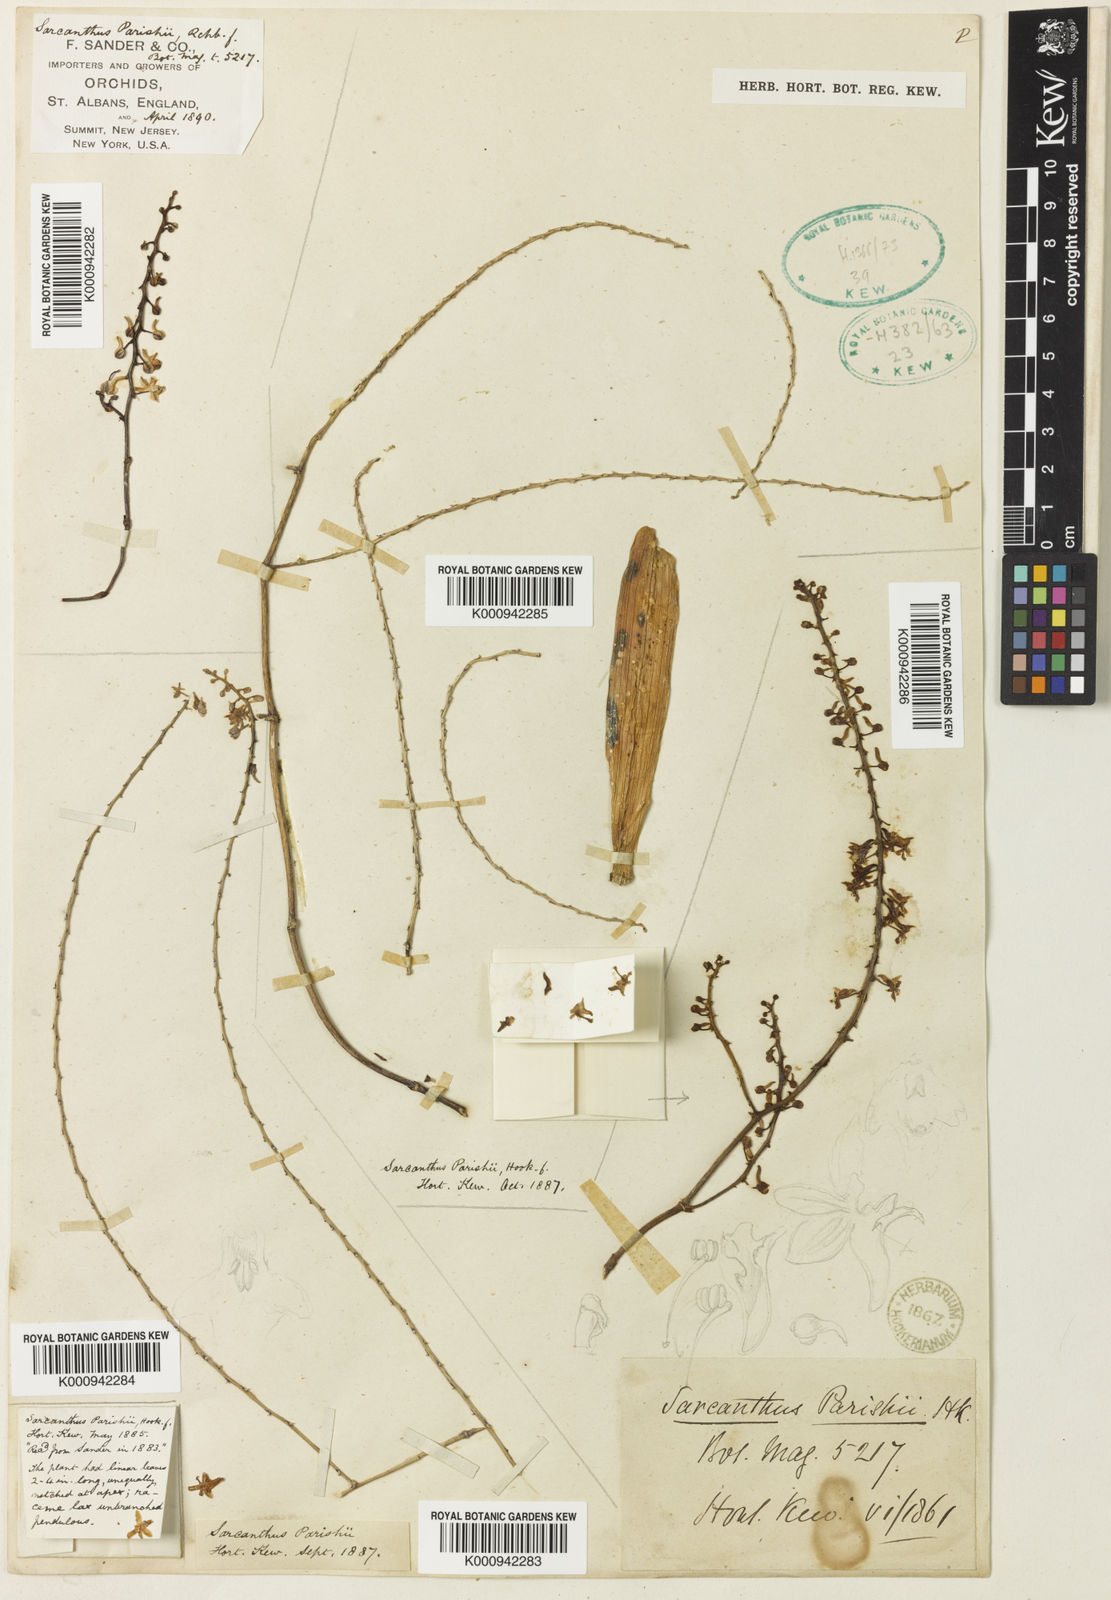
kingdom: Plantae
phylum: Tracheophyta
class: Liliopsida
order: Asparagales
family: Orchidaceae
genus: Cleisostoma
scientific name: Cleisostoma parishii
